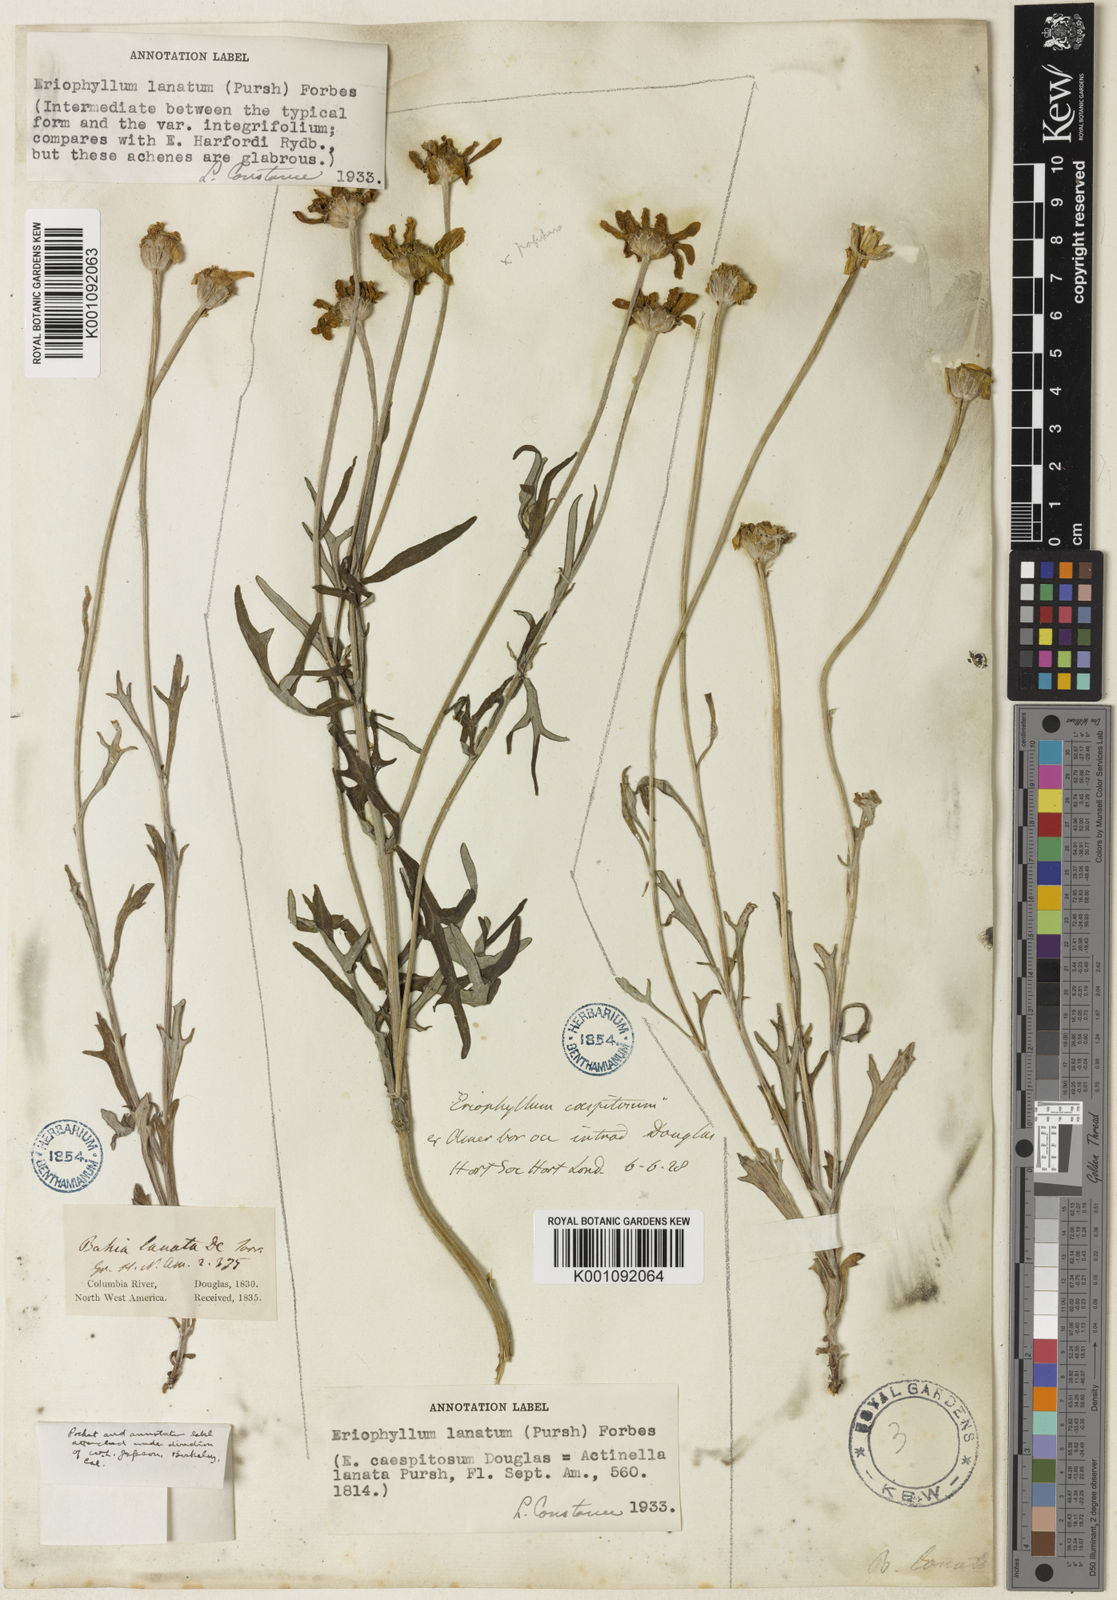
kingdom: Plantae
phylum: Tracheophyta
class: Magnoliopsida
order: Asterales
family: Asteraceae
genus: Eriophyllum
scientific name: Eriophyllum lanatum
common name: Common woolly-sunflower
